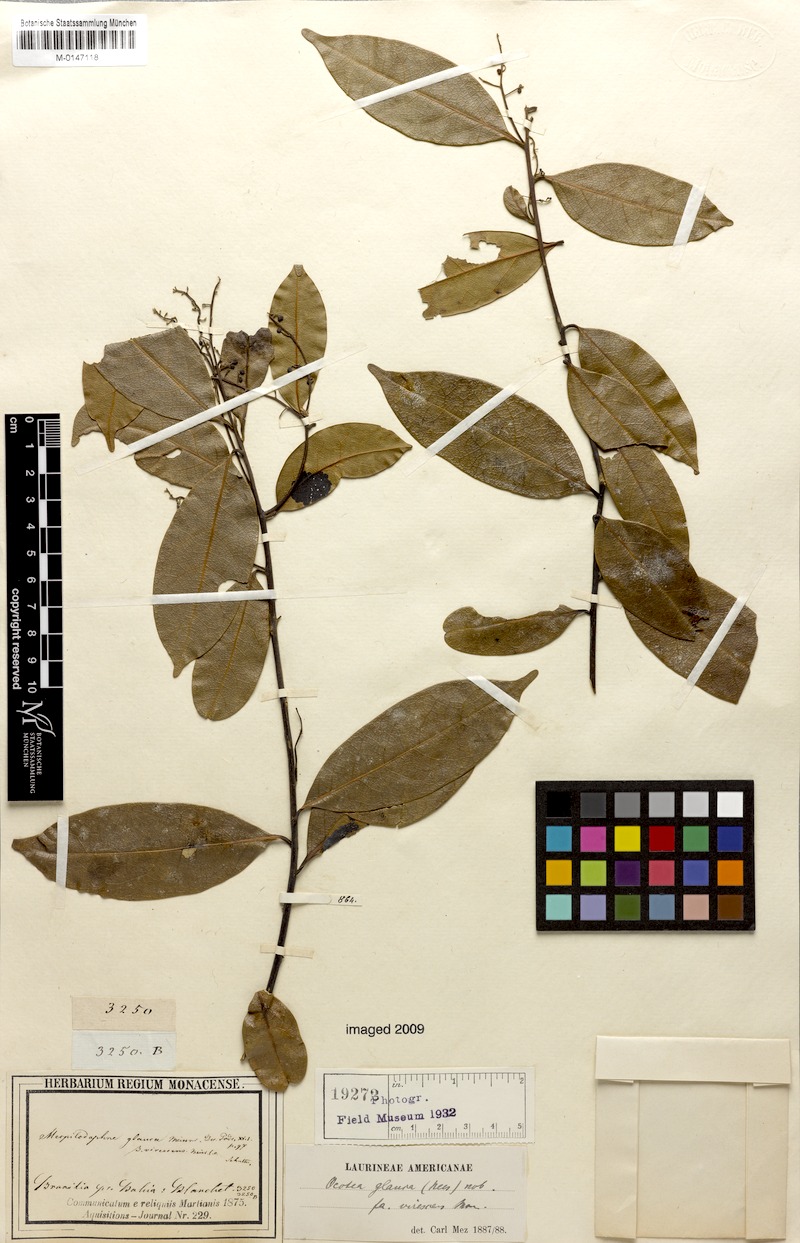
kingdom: Plantae
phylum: Tracheophyta
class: Magnoliopsida
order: Laurales
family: Lauraceae
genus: Mespilodaphne
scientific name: Mespilodaphne glauca
